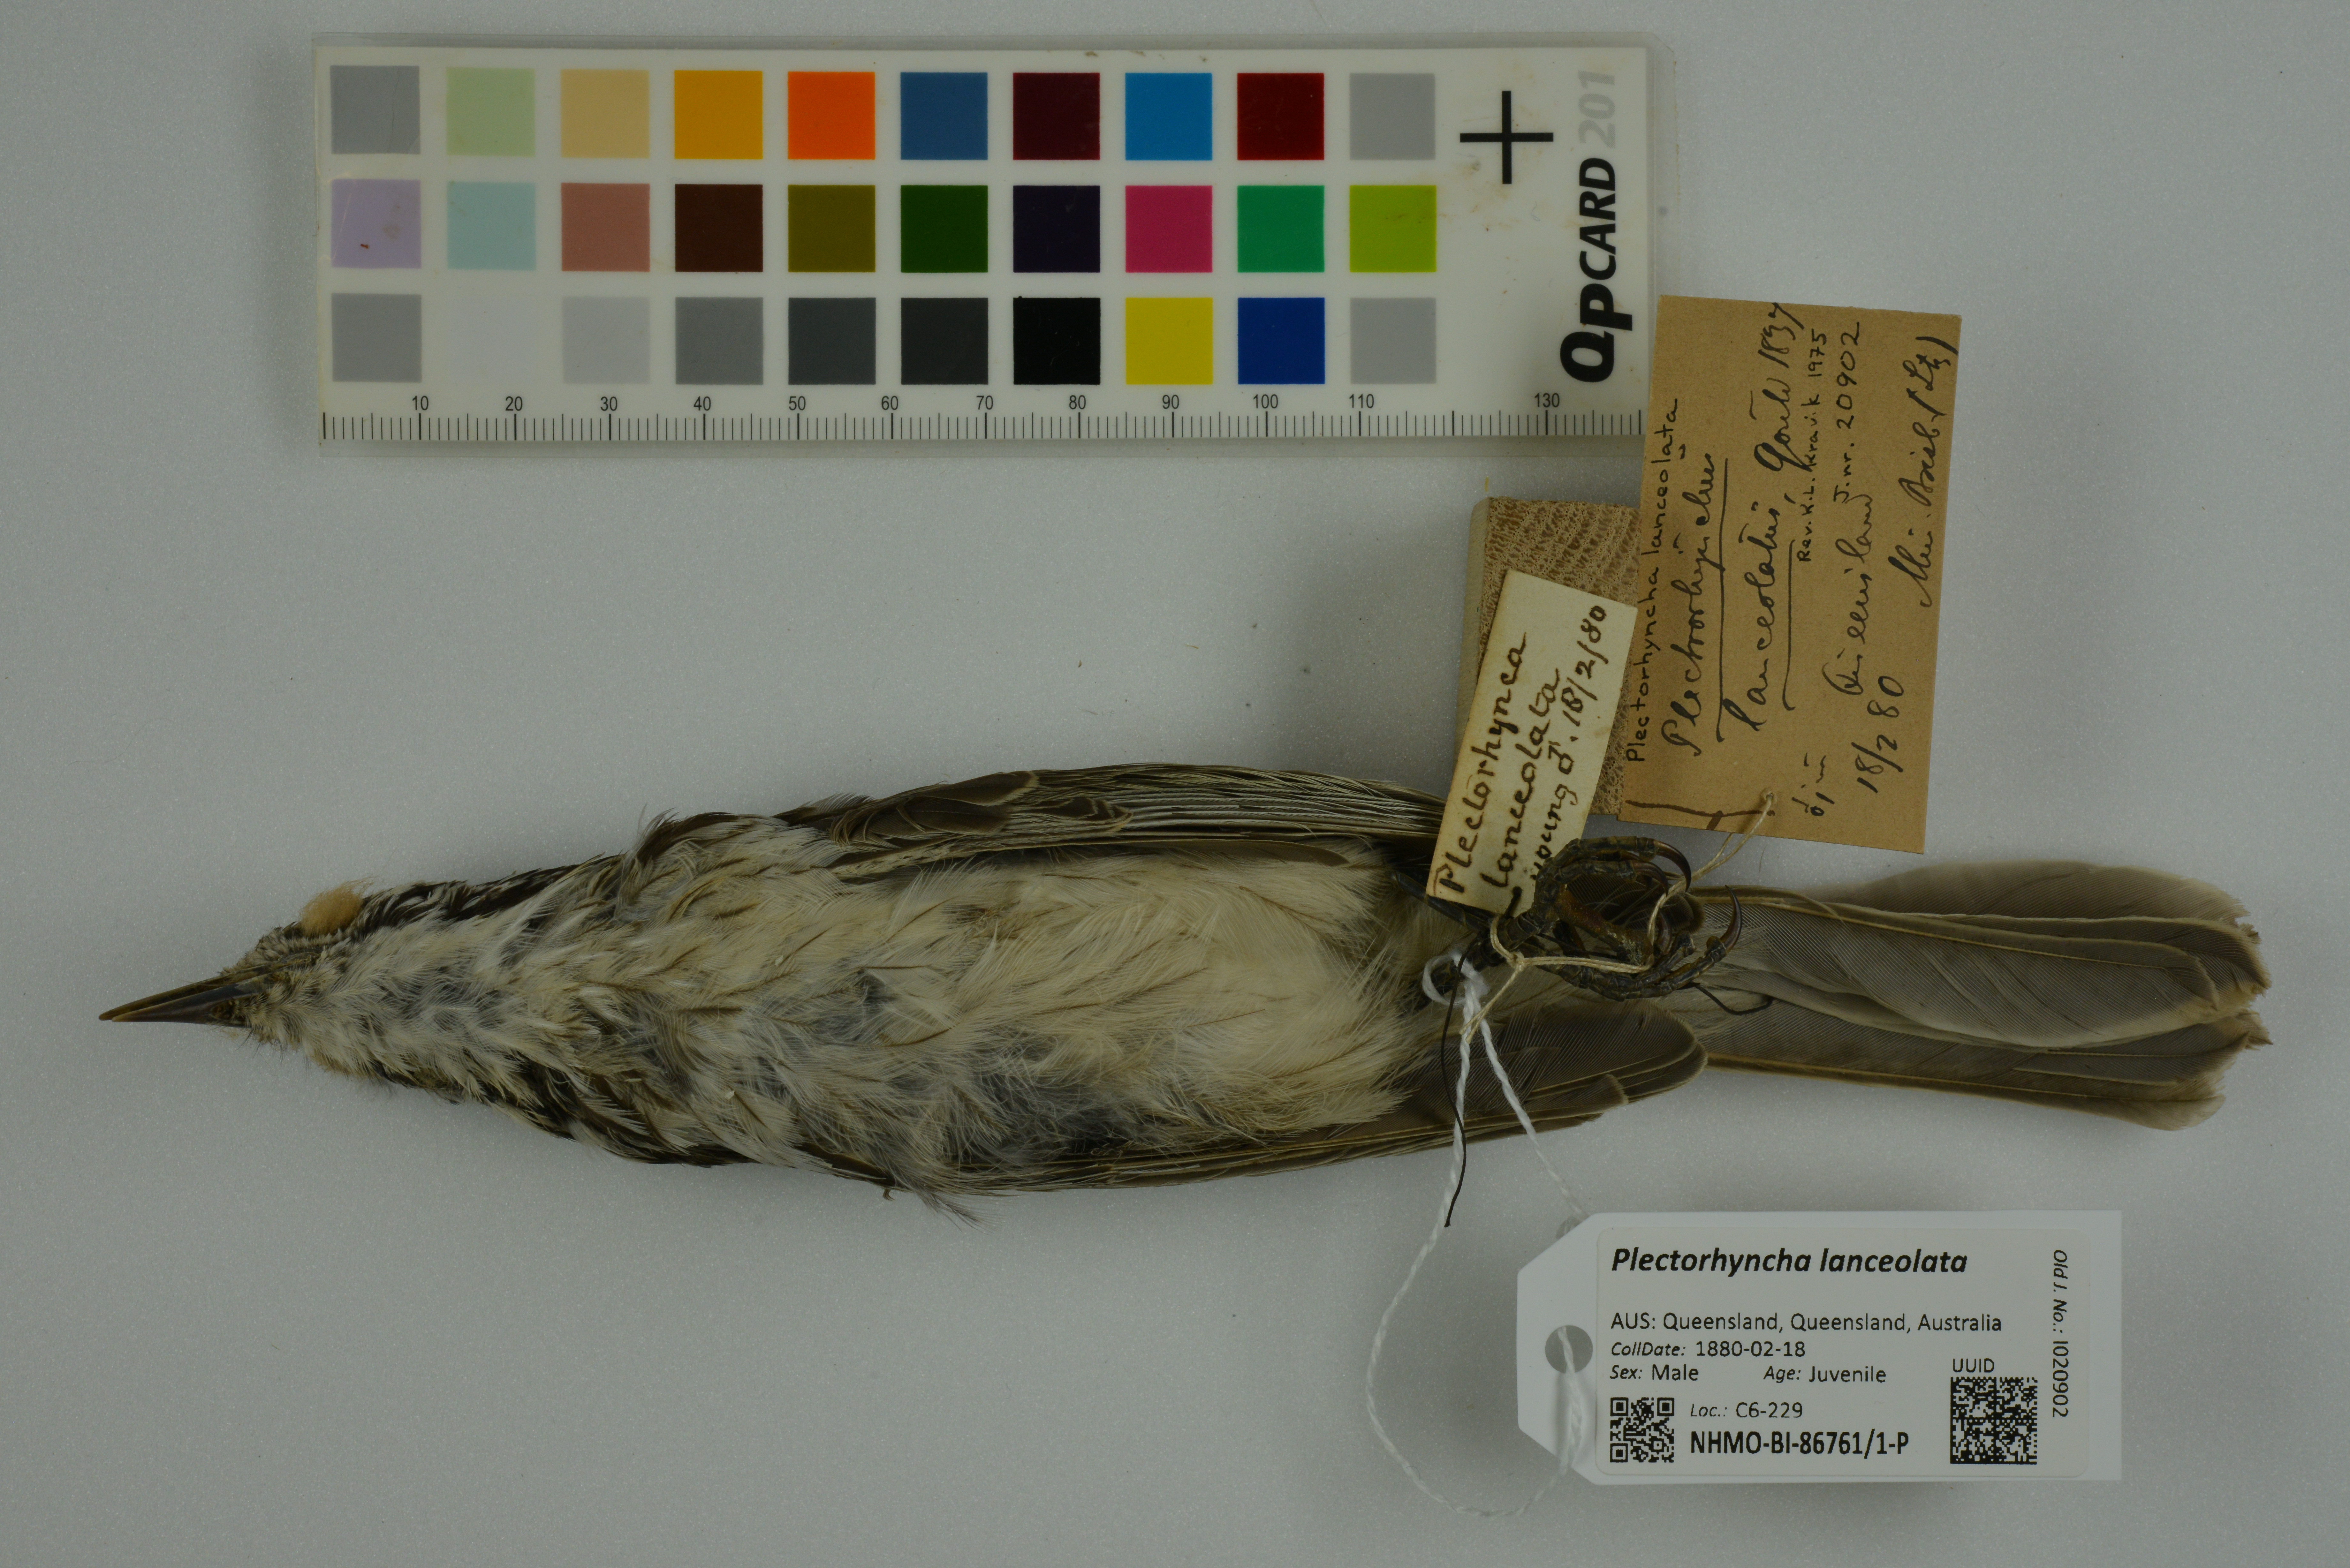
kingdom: Animalia
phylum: Chordata
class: Aves
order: Passeriformes
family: Meliphagidae
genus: Plectorhyncha
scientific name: Plectorhyncha lanceolata
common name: Striped honeyeater
